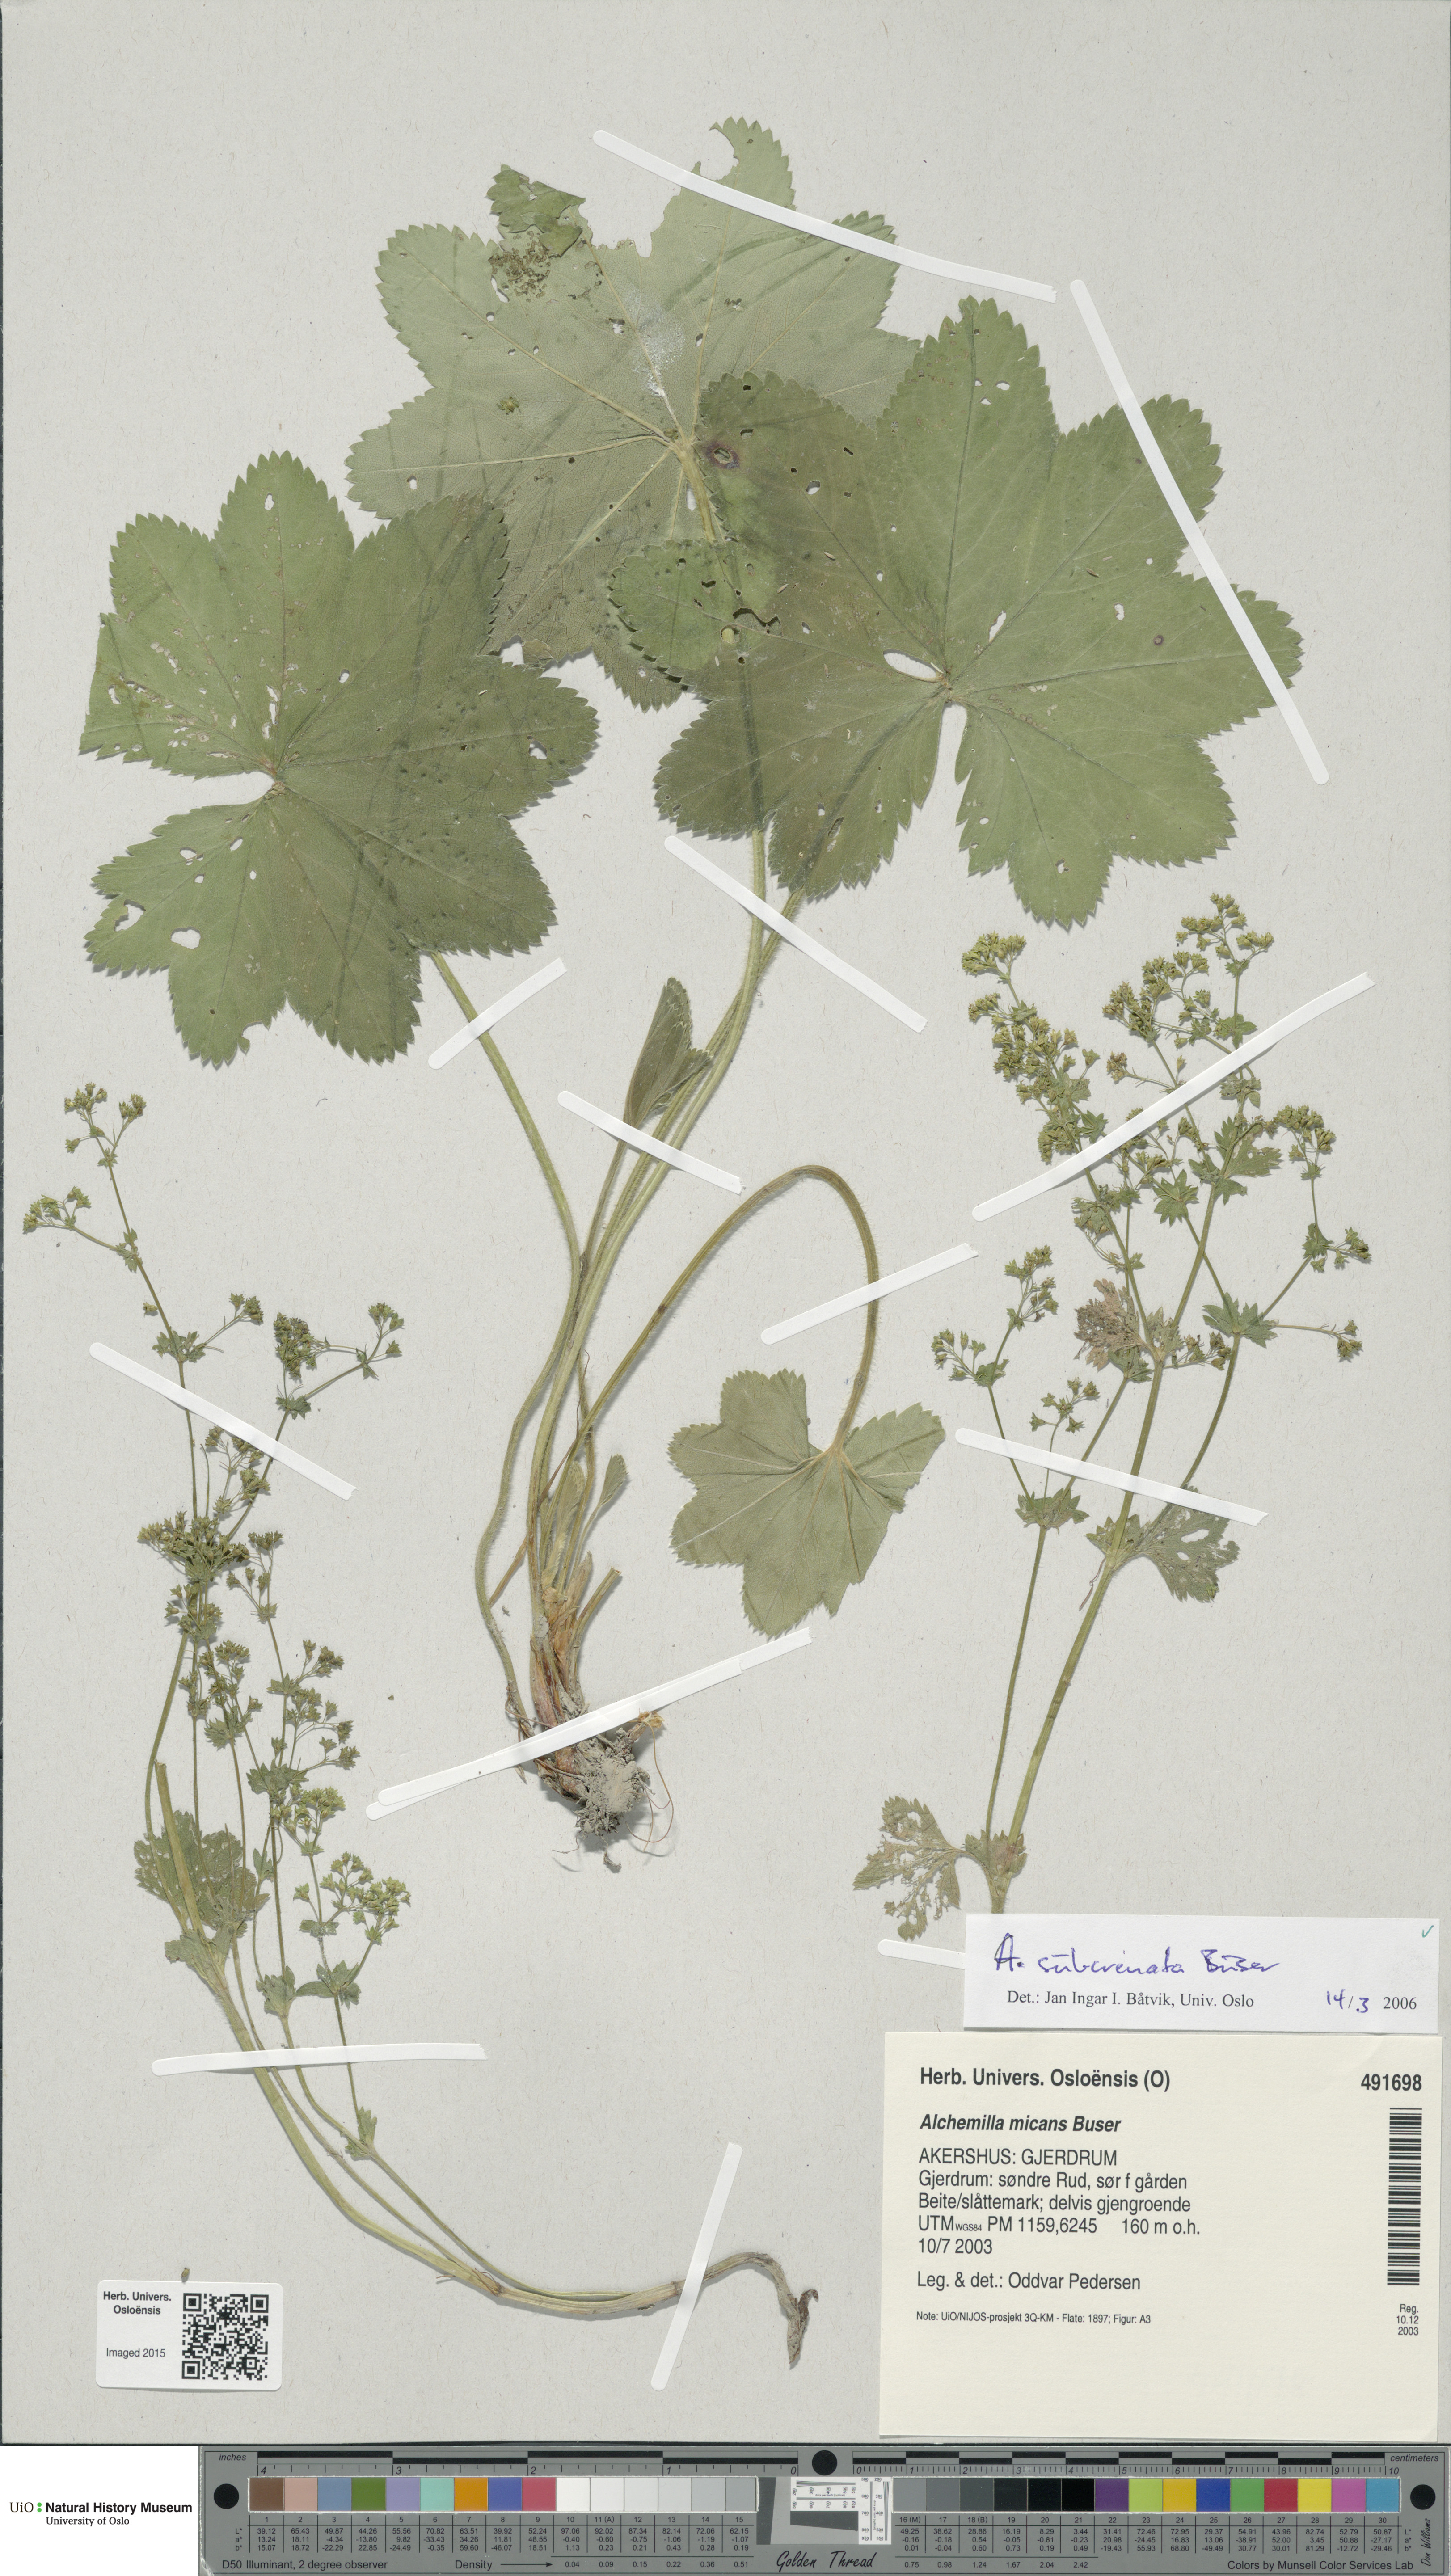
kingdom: Plantae
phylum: Tracheophyta
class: Magnoliopsida
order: Rosales
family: Rosaceae
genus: Alchemilla
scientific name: Alchemilla subcrenata
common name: Broadtooth lady's mantle
